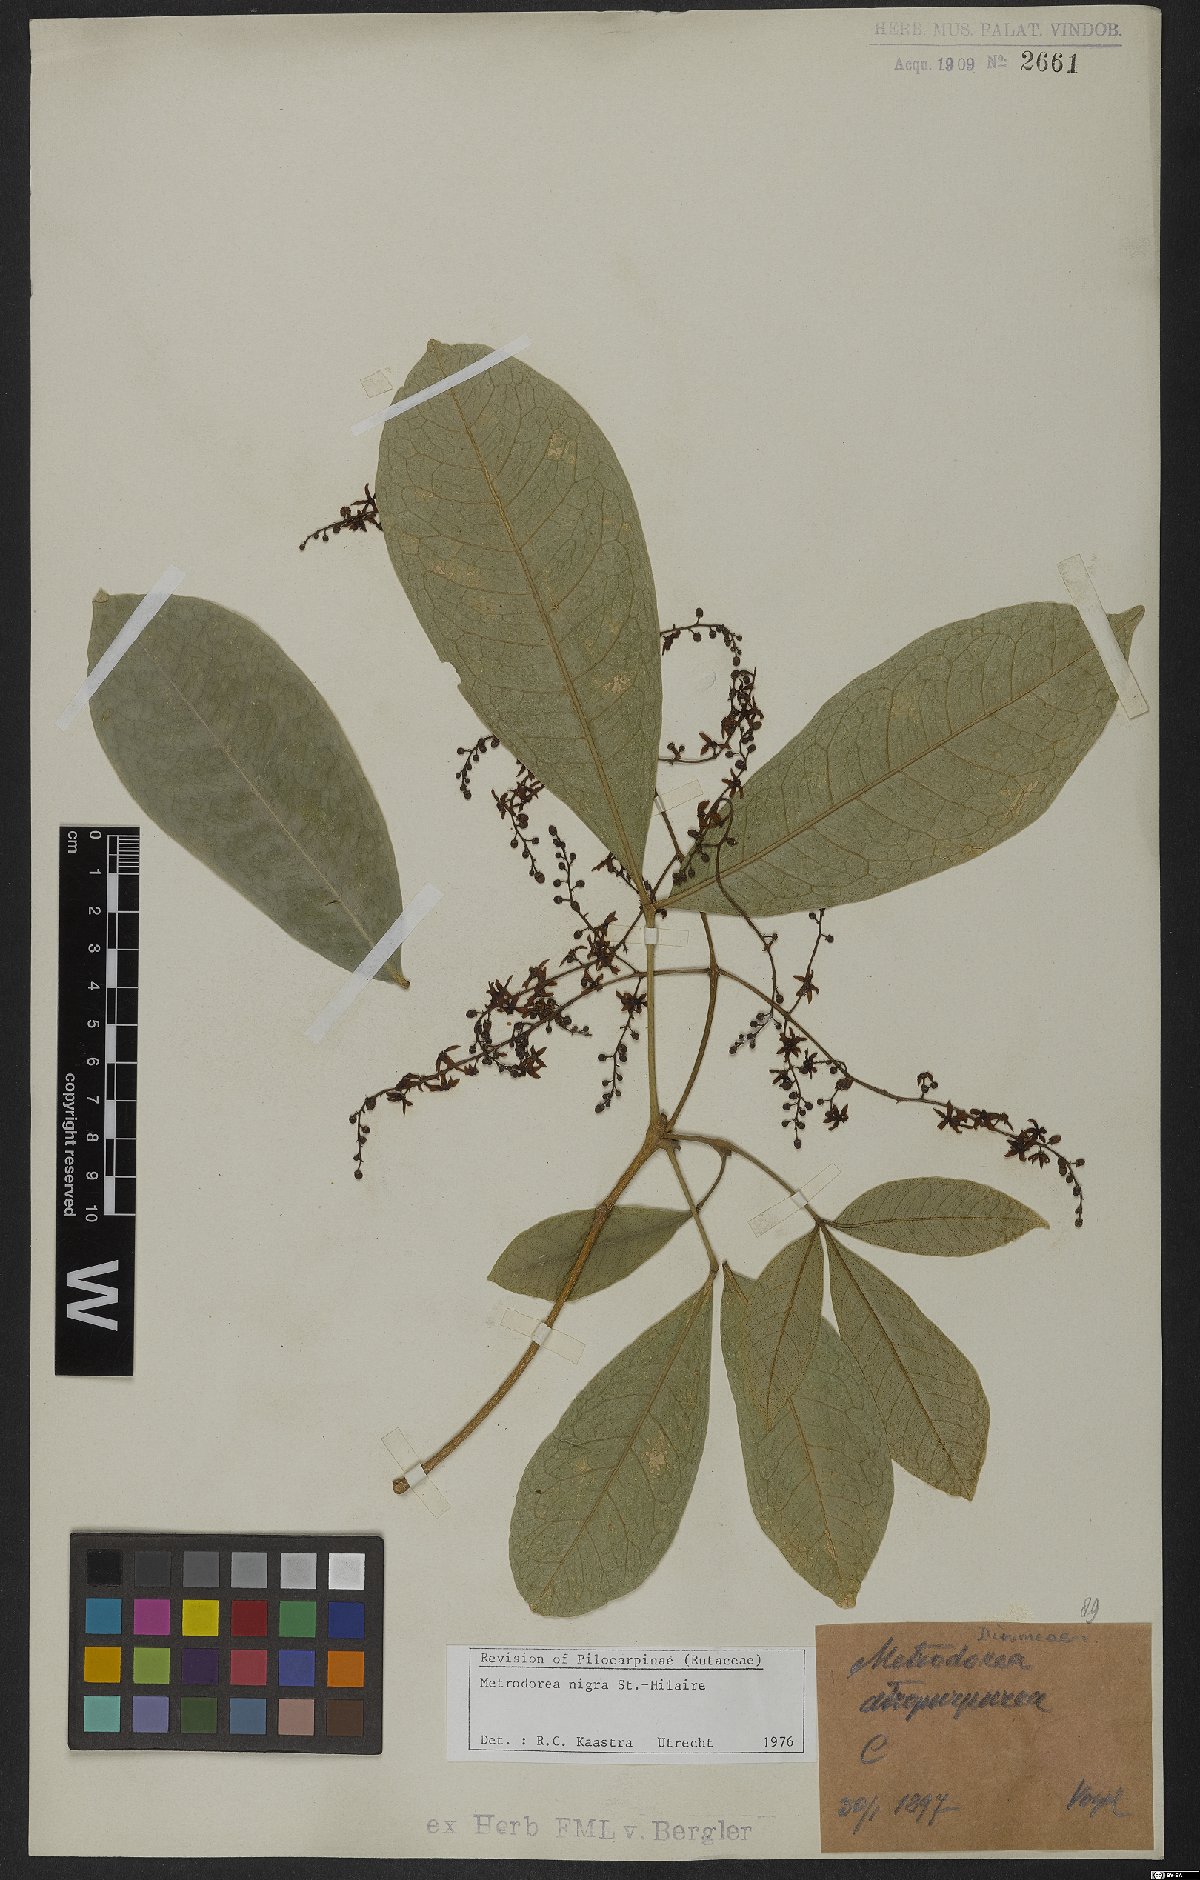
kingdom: Plantae
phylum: Tracheophyta
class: Magnoliopsida
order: Sapindales
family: Rutaceae
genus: Metrodorea
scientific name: Metrodorea nigra
